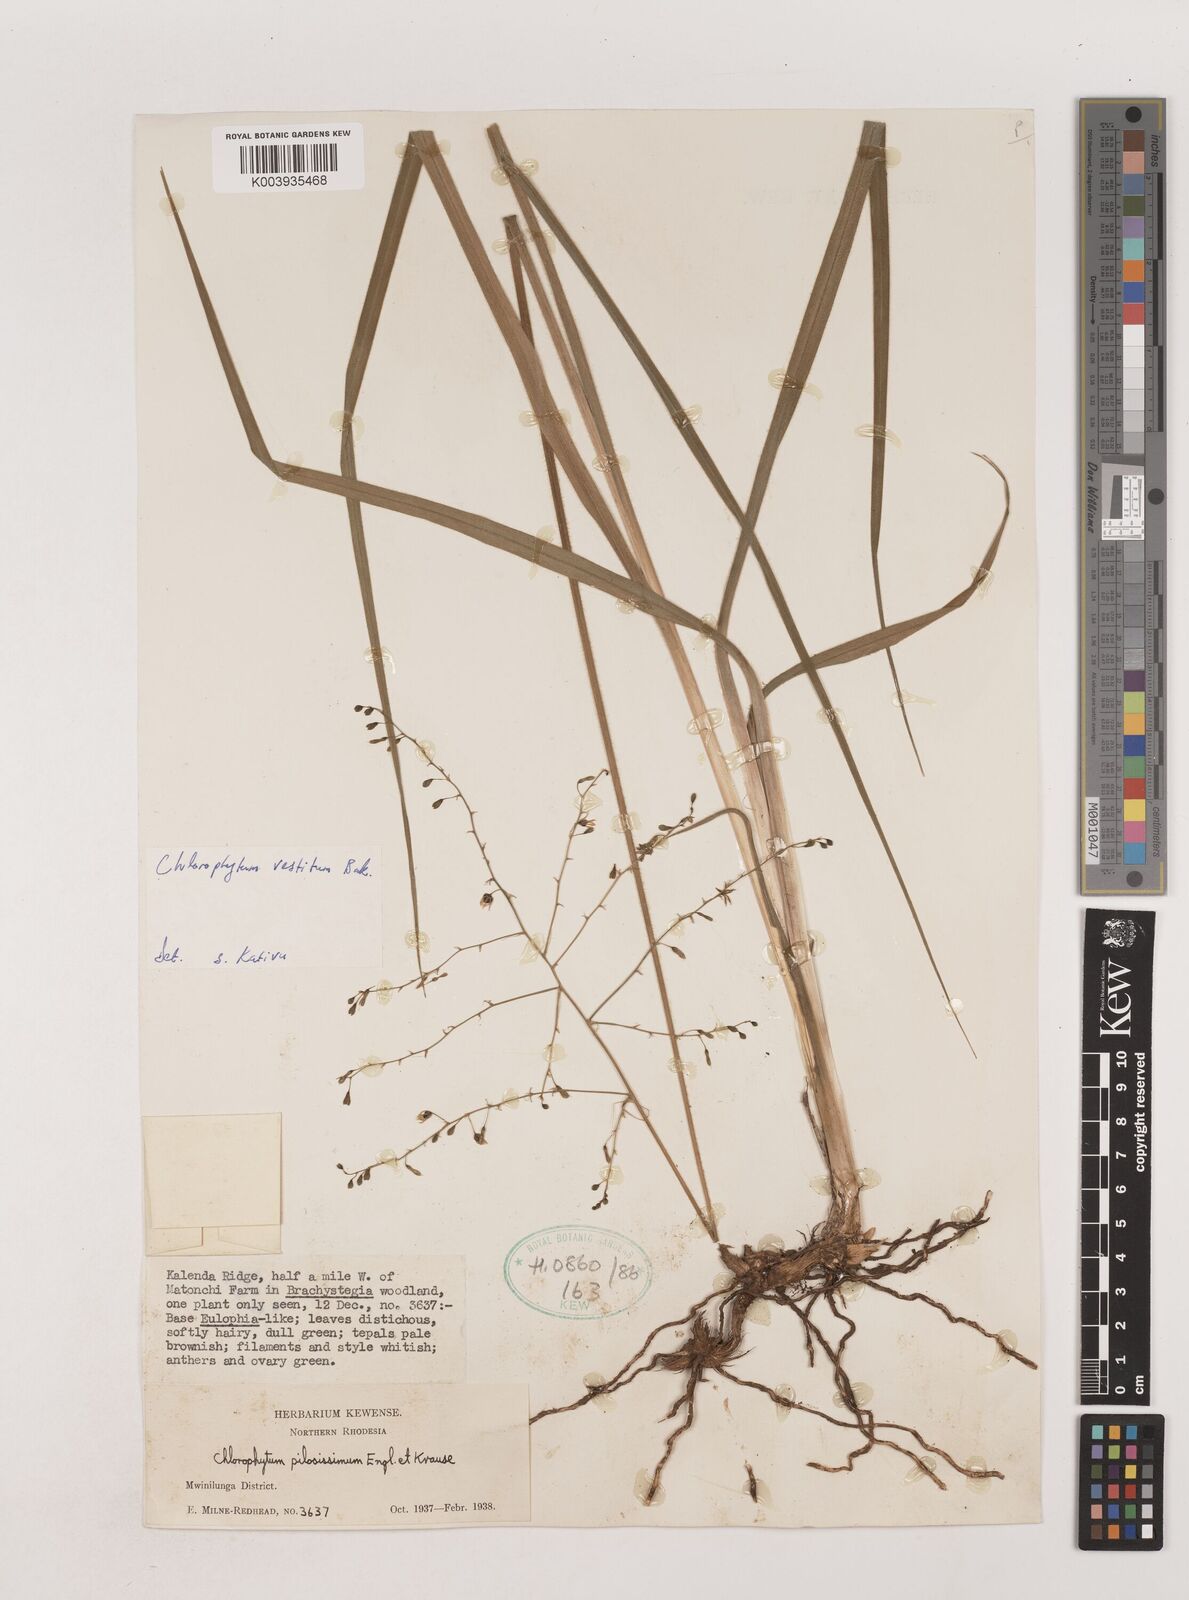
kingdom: Plantae
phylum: Tracheophyta
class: Liliopsida
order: Asparagales
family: Asparagaceae
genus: Chlorophytum
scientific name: Chlorophytum vestitum
